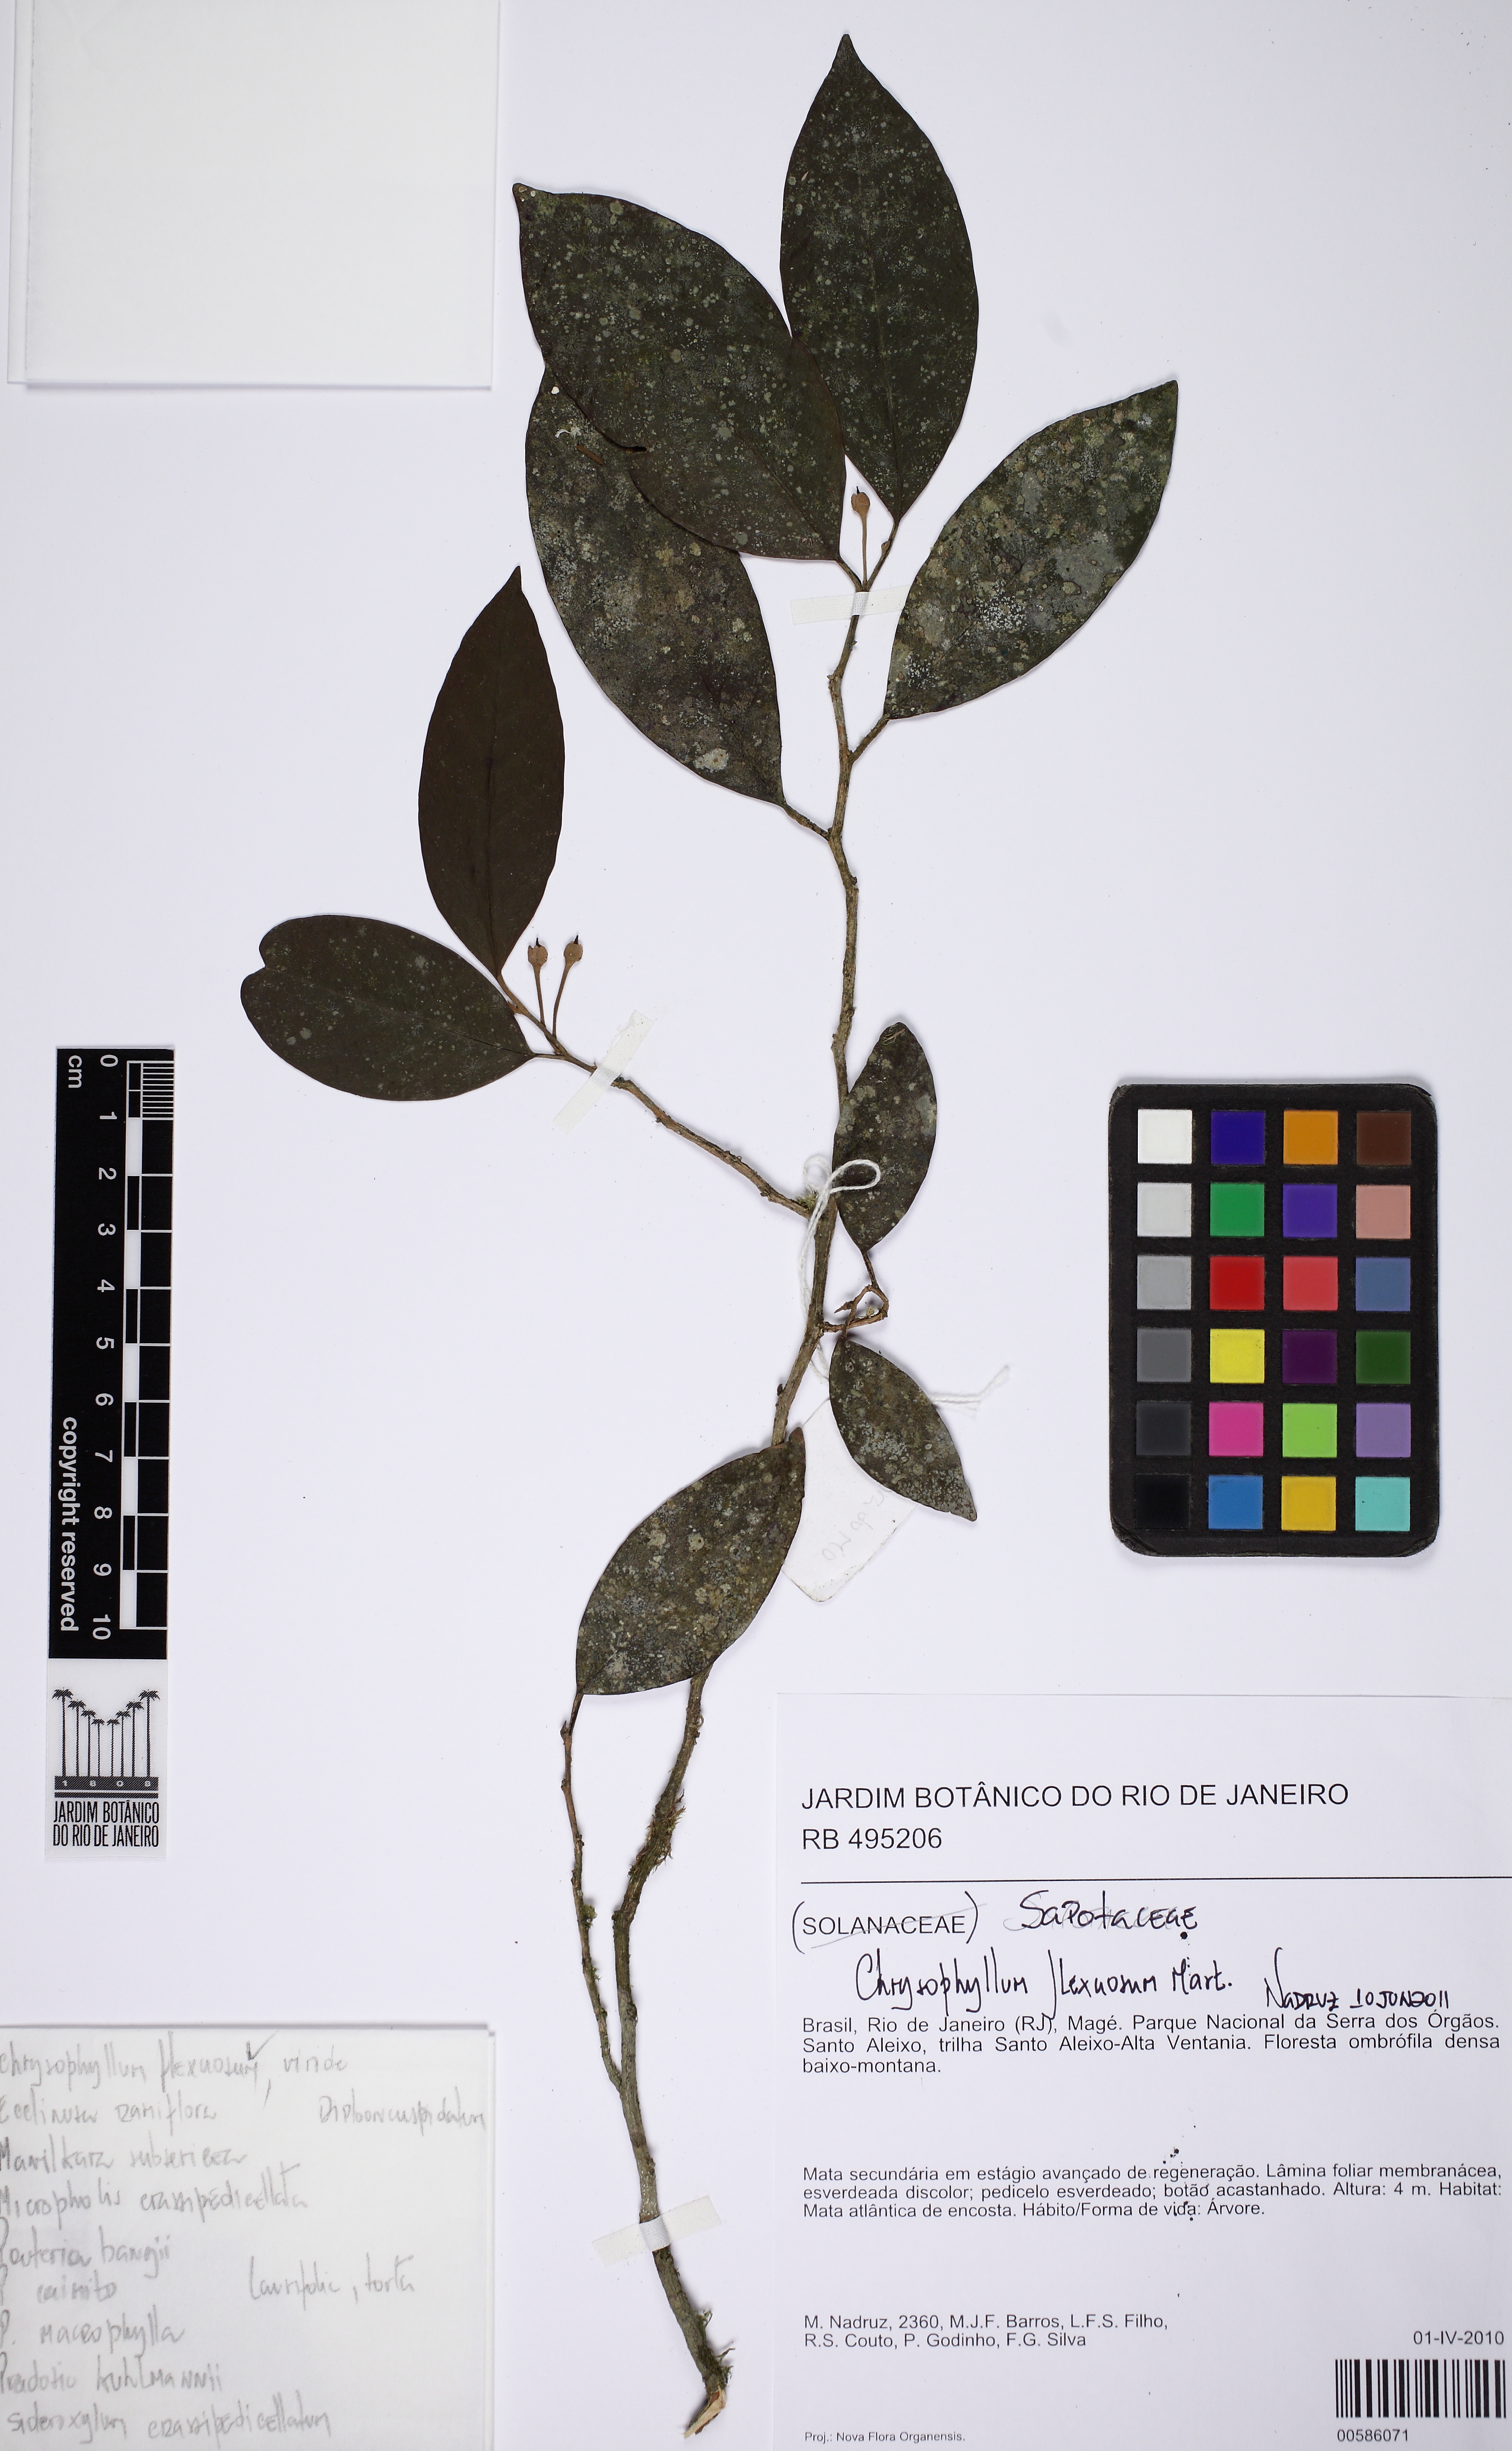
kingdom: Plantae
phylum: Tracheophyta
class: Magnoliopsida
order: Ericales
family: Sapotaceae
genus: Chrysophyllum
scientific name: Chrysophyllum flexuosum
